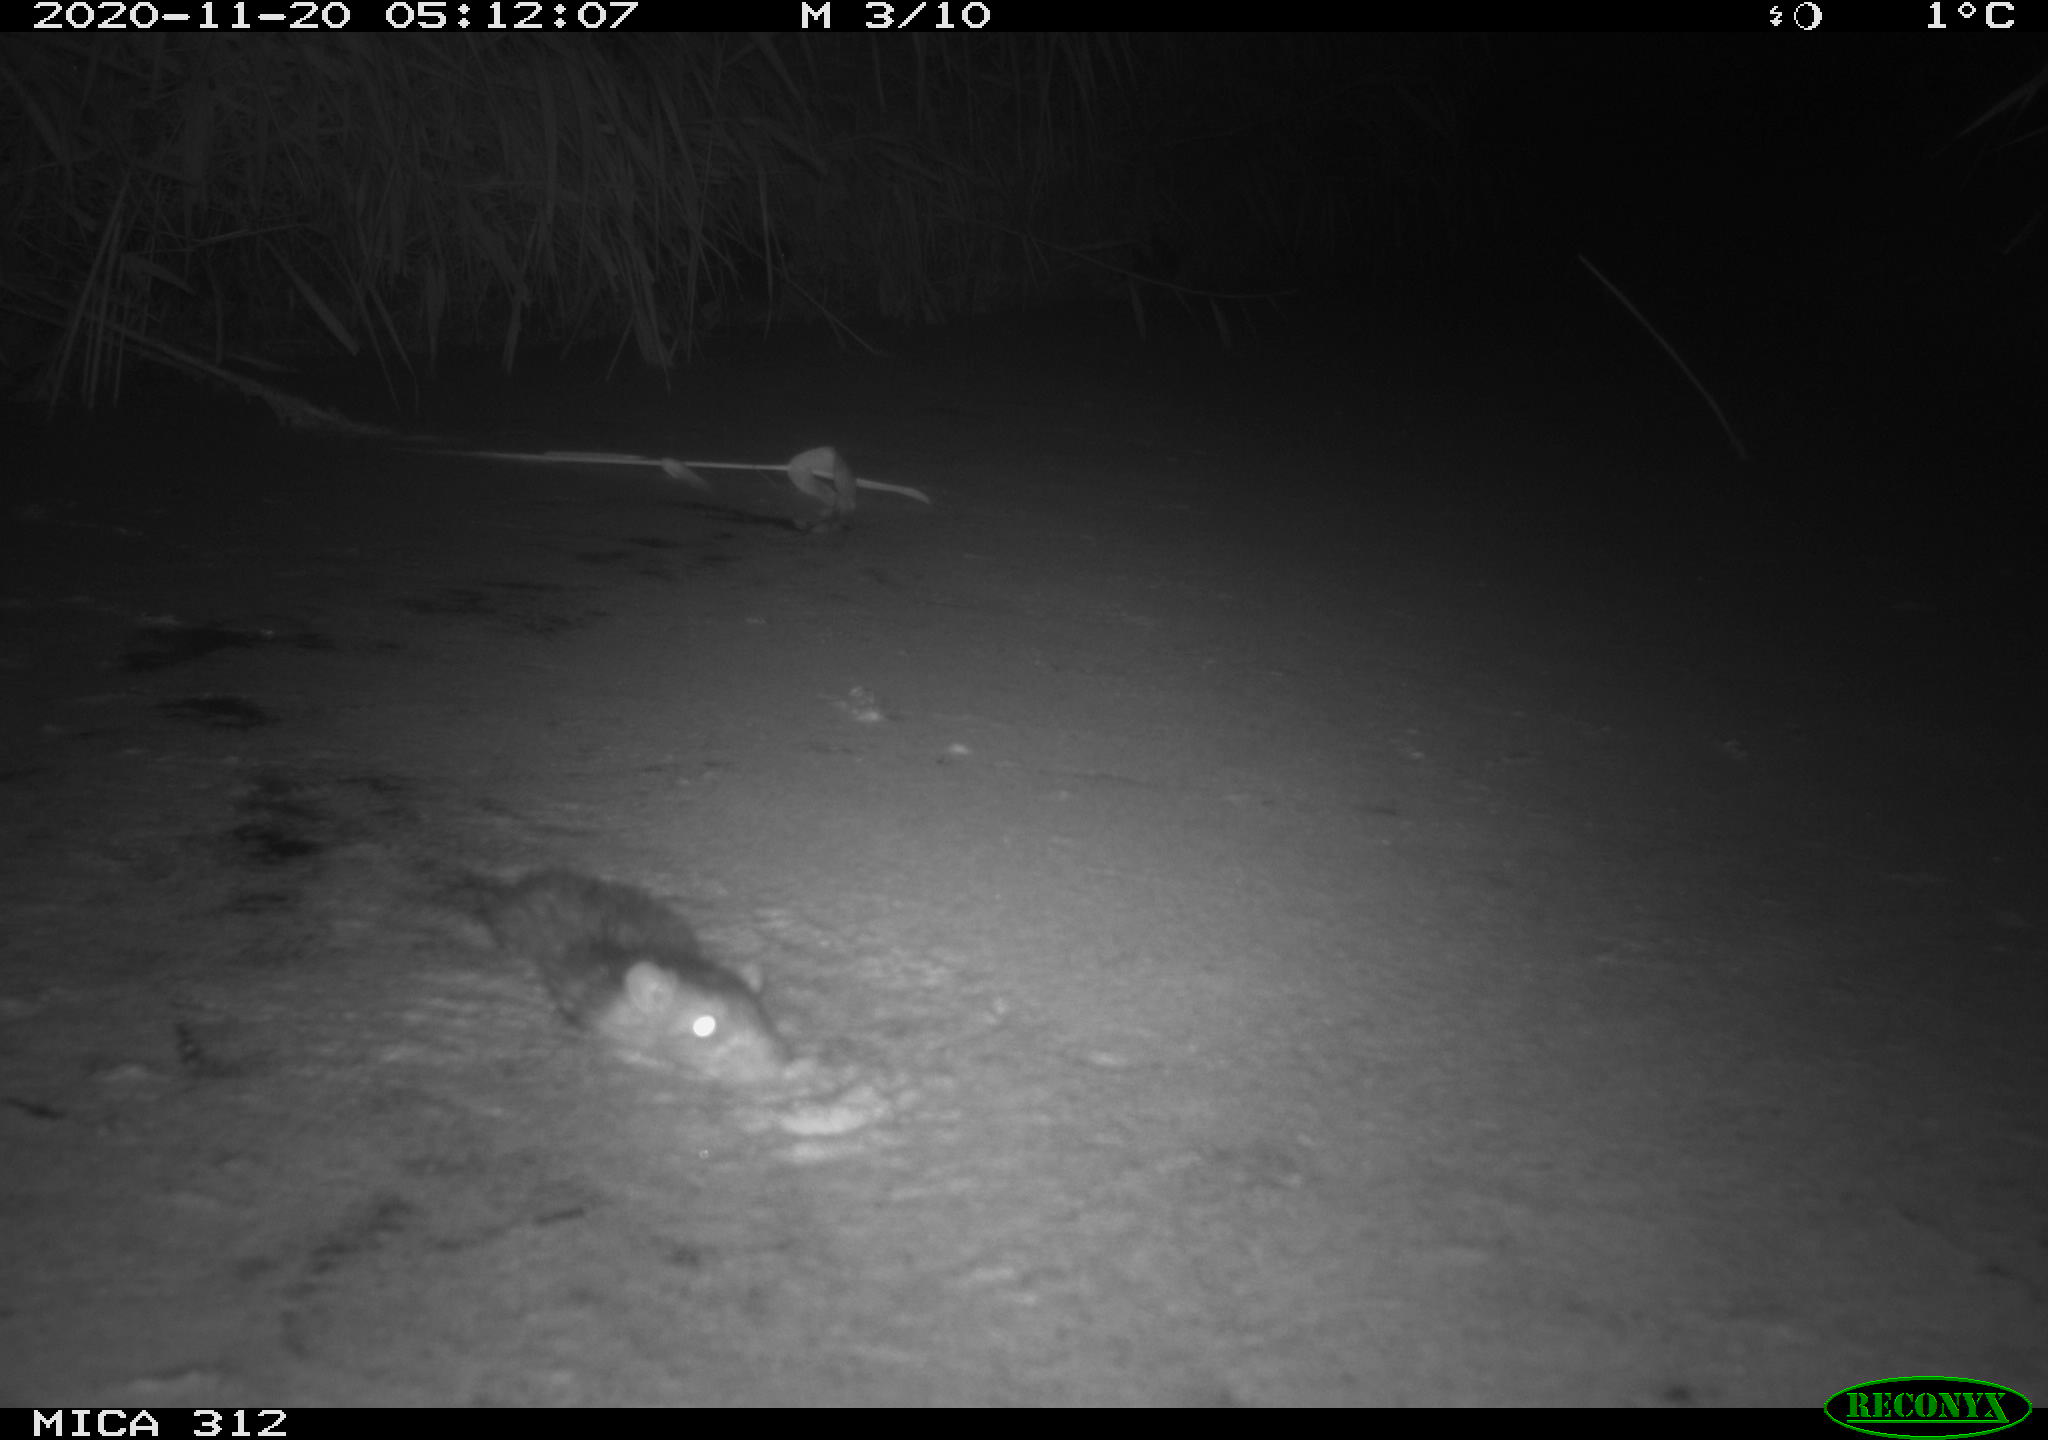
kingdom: Animalia
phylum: Chordata
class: Mammalia
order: Rodentia
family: Muridae
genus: Rattus
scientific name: Rattus norvegicus
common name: Brown rat
